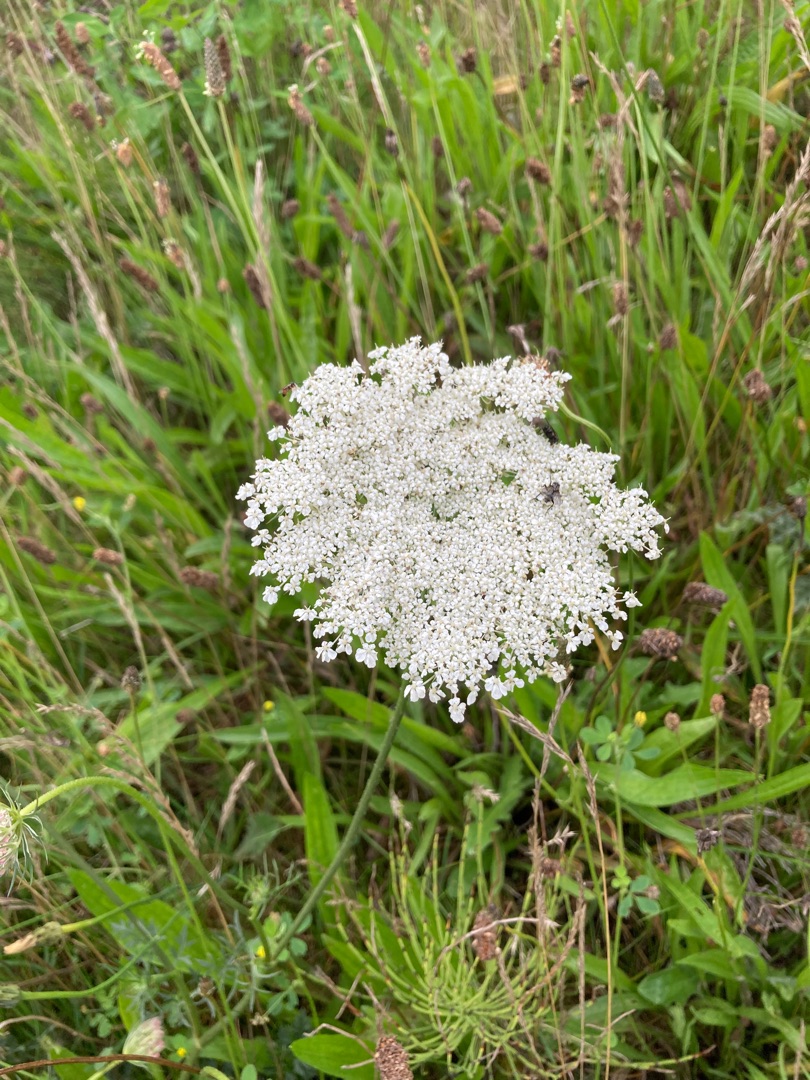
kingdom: Plantae
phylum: Tracheophyta
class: Magnoliopsida
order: Apiales
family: Apiaceae
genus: Daucus
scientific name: Daucus carota
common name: Gulerod
